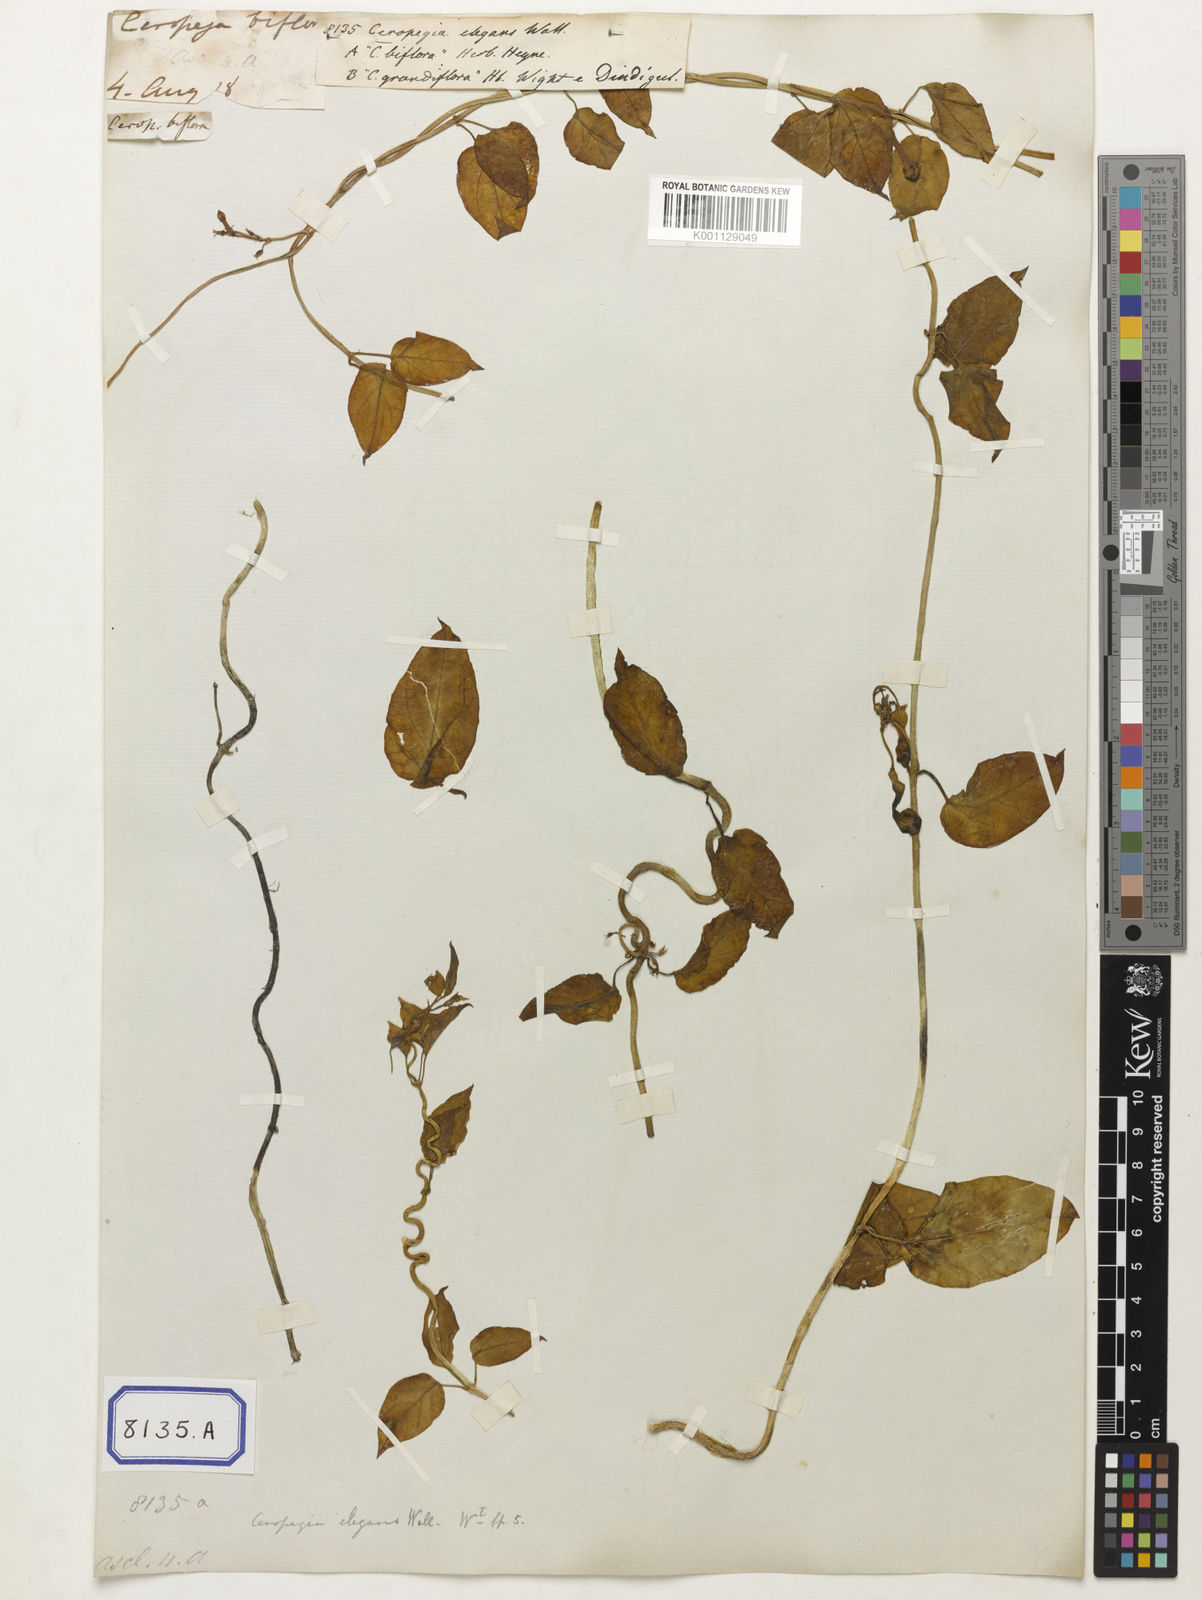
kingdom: Plantae
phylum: Tracheophyta
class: Magnoliopsida
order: Gentianales
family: Apocynaceae
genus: Ceropegia
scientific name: Ceropegia elegans
